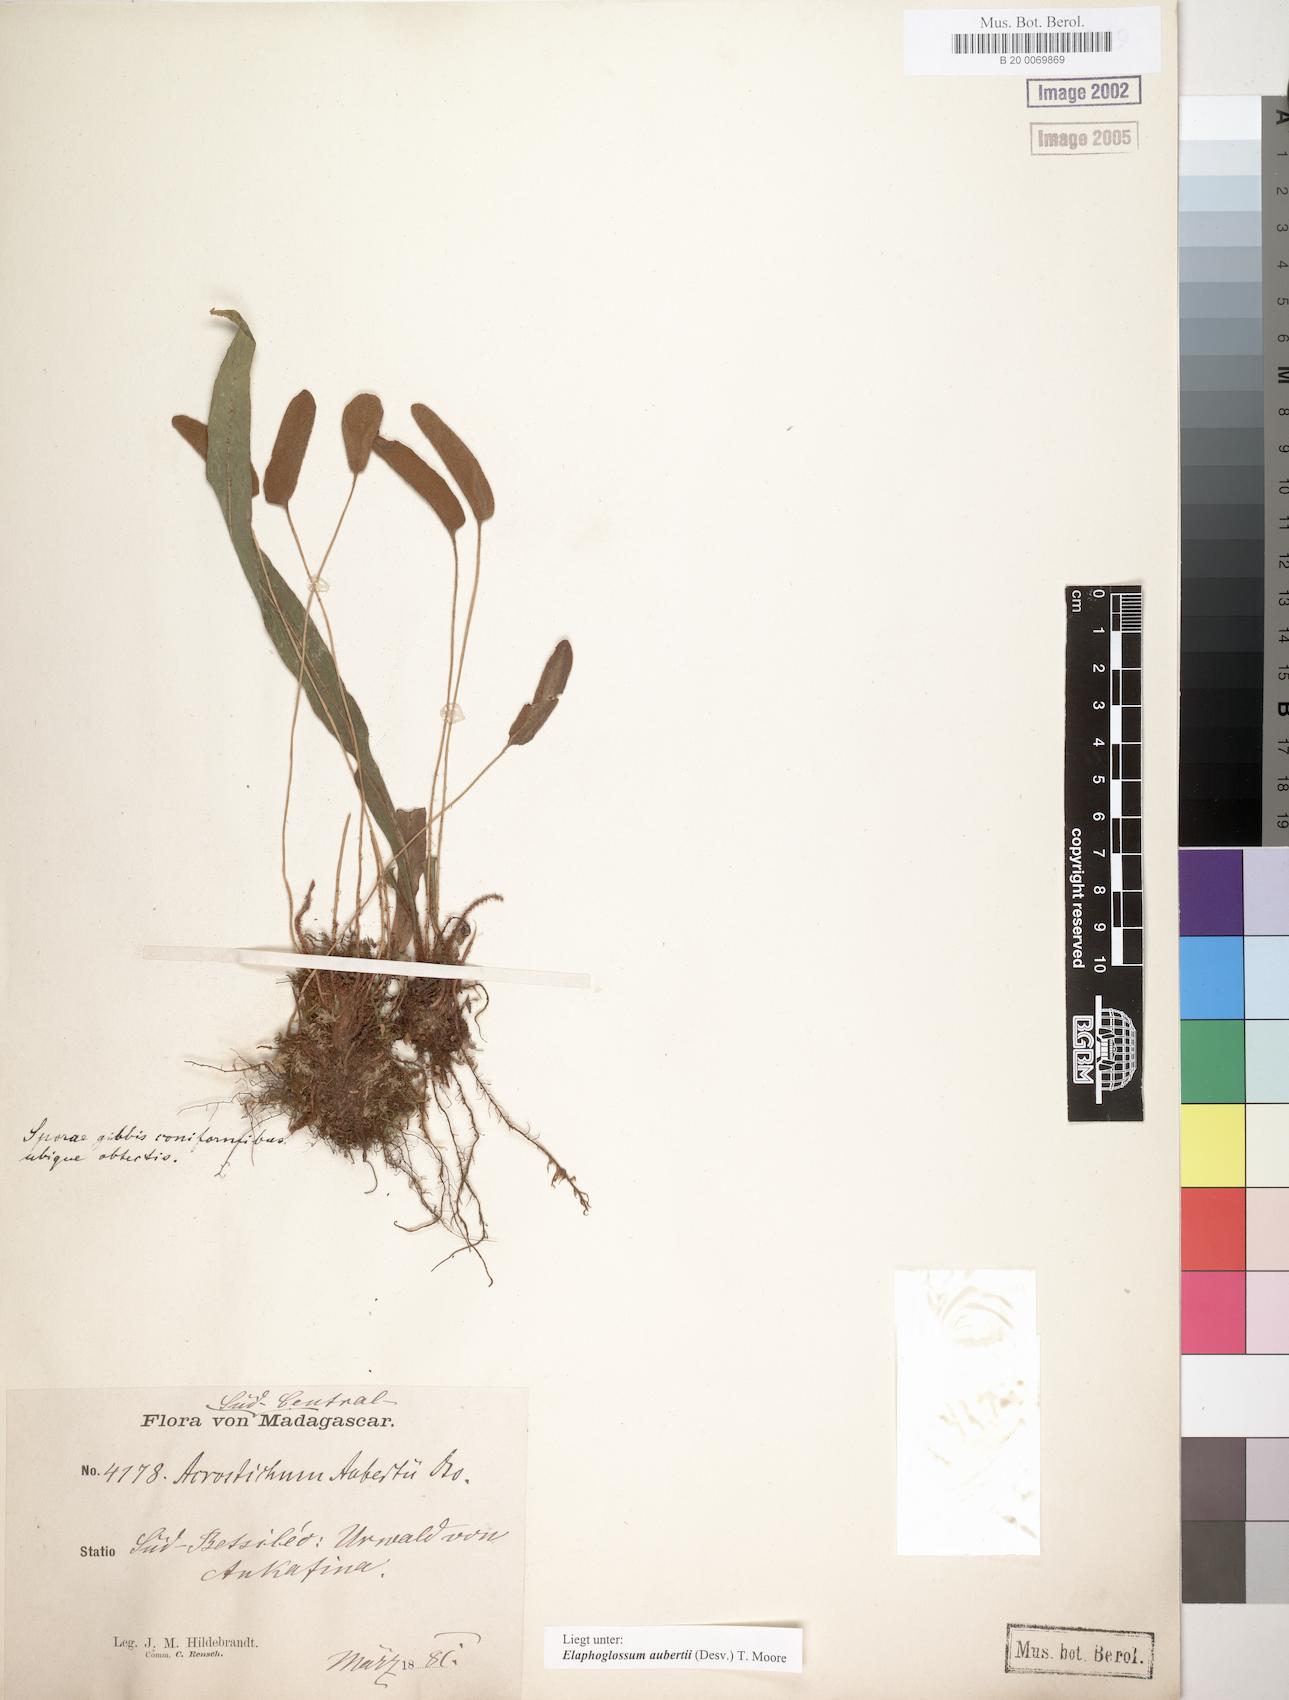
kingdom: Plantae
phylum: Tracheophyta
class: Polypodiopsida
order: Polypodiales
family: Dryopteridaceae
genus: Elaphoglossum
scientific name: Elaphoglossum aubertii
